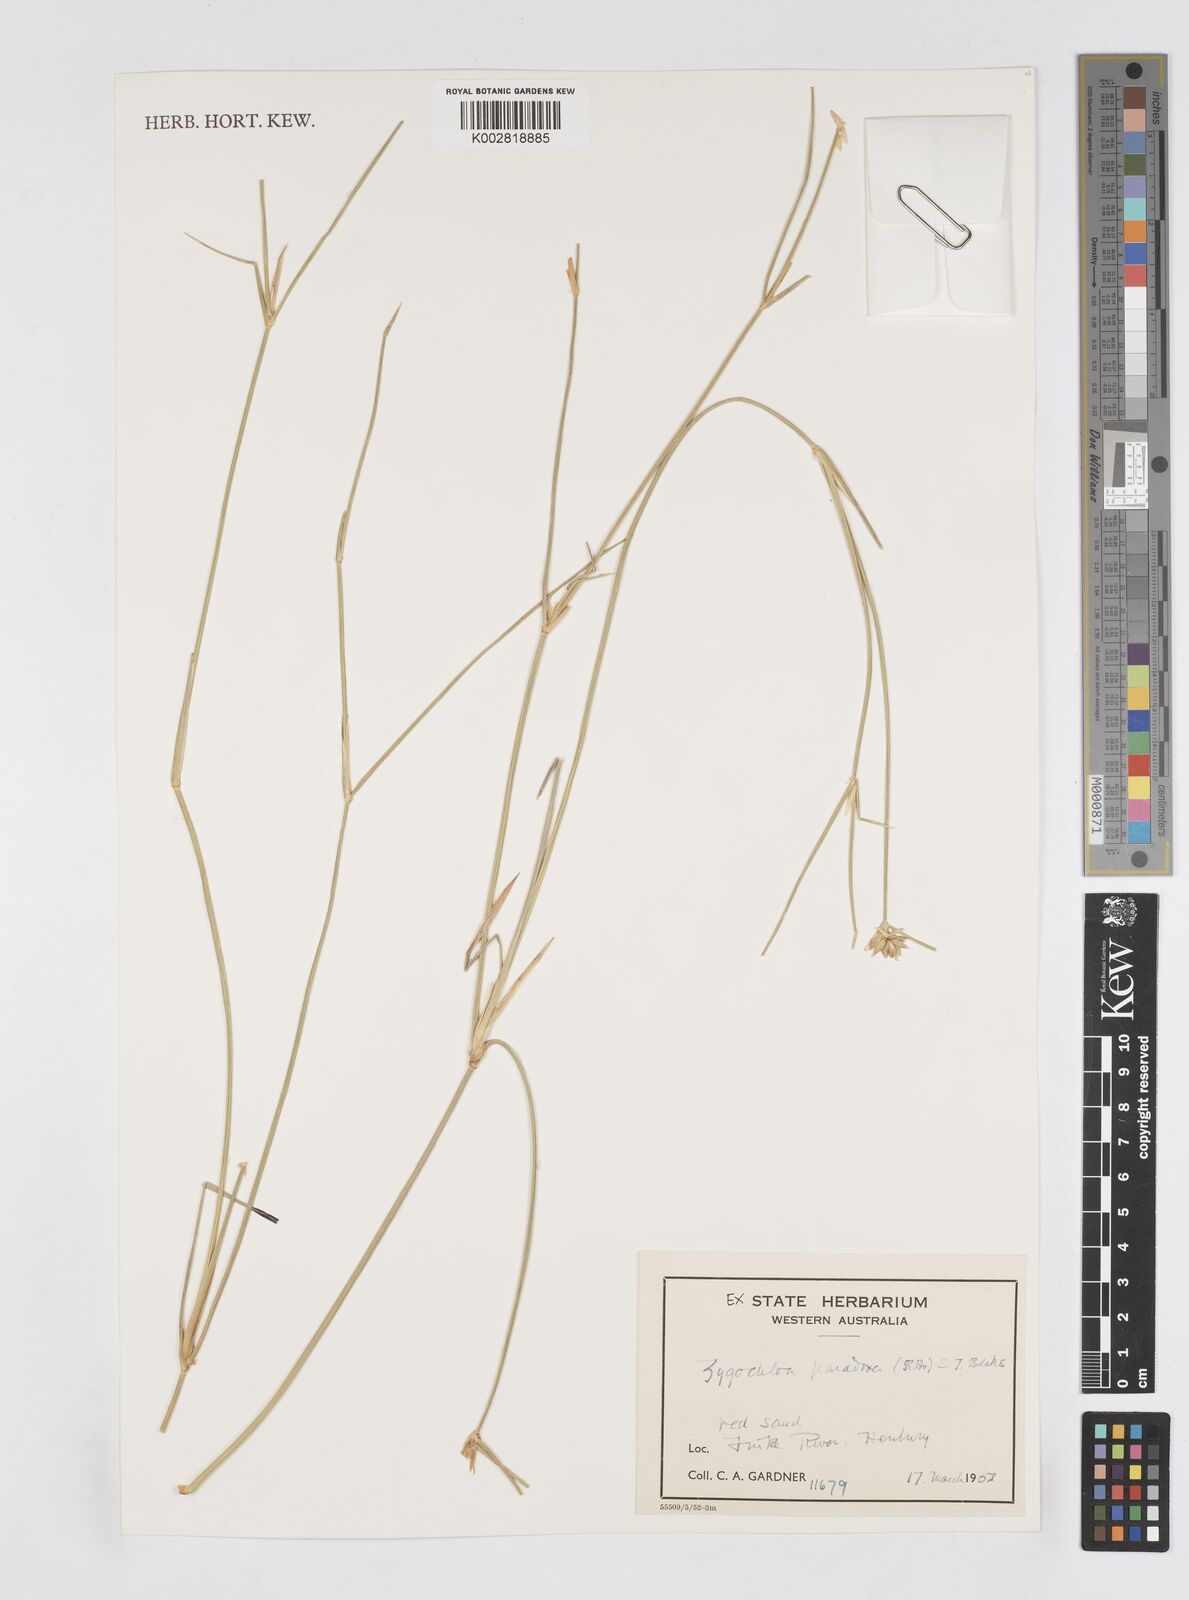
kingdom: Plantae
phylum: Tracheophyta
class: Liliopsida
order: Poales
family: Poaceae
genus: Zygochloa
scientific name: Zygochloa paradoxa
